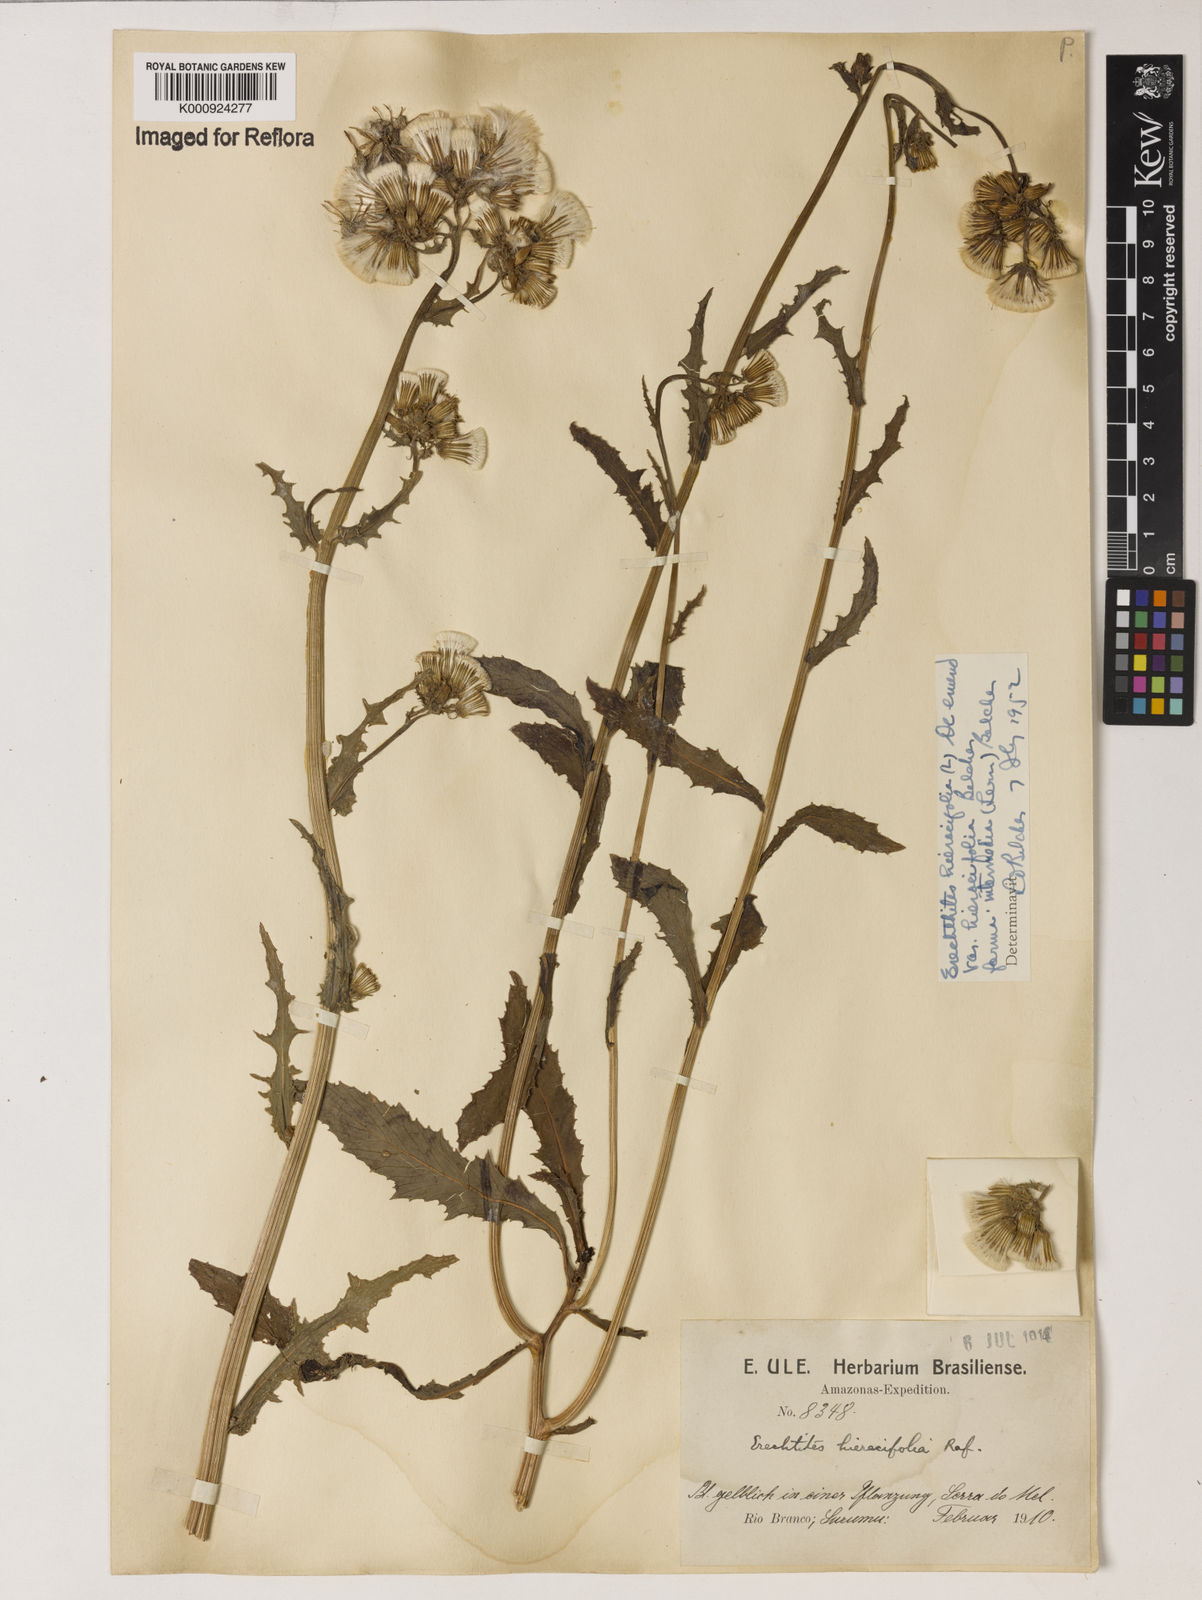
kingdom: Plantae
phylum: Tracheophyta
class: Magnoliopsida
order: Asterales
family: Asteraceae
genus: Erechtites
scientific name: Erechtites hieraciifolius
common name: American burnweed
